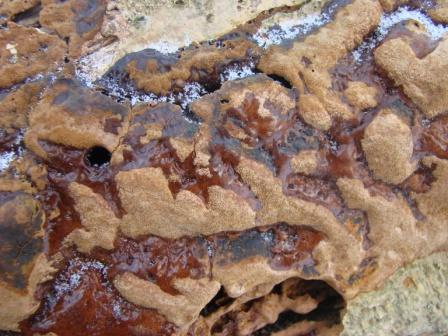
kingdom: Fungi
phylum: Basidiomycota
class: Agaricomycetes
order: Hymenochaetales
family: Hymenochaetaceae
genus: Fuscoporia
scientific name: Fuscoporia ferruginosa
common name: rustbrun ildporesvamp
